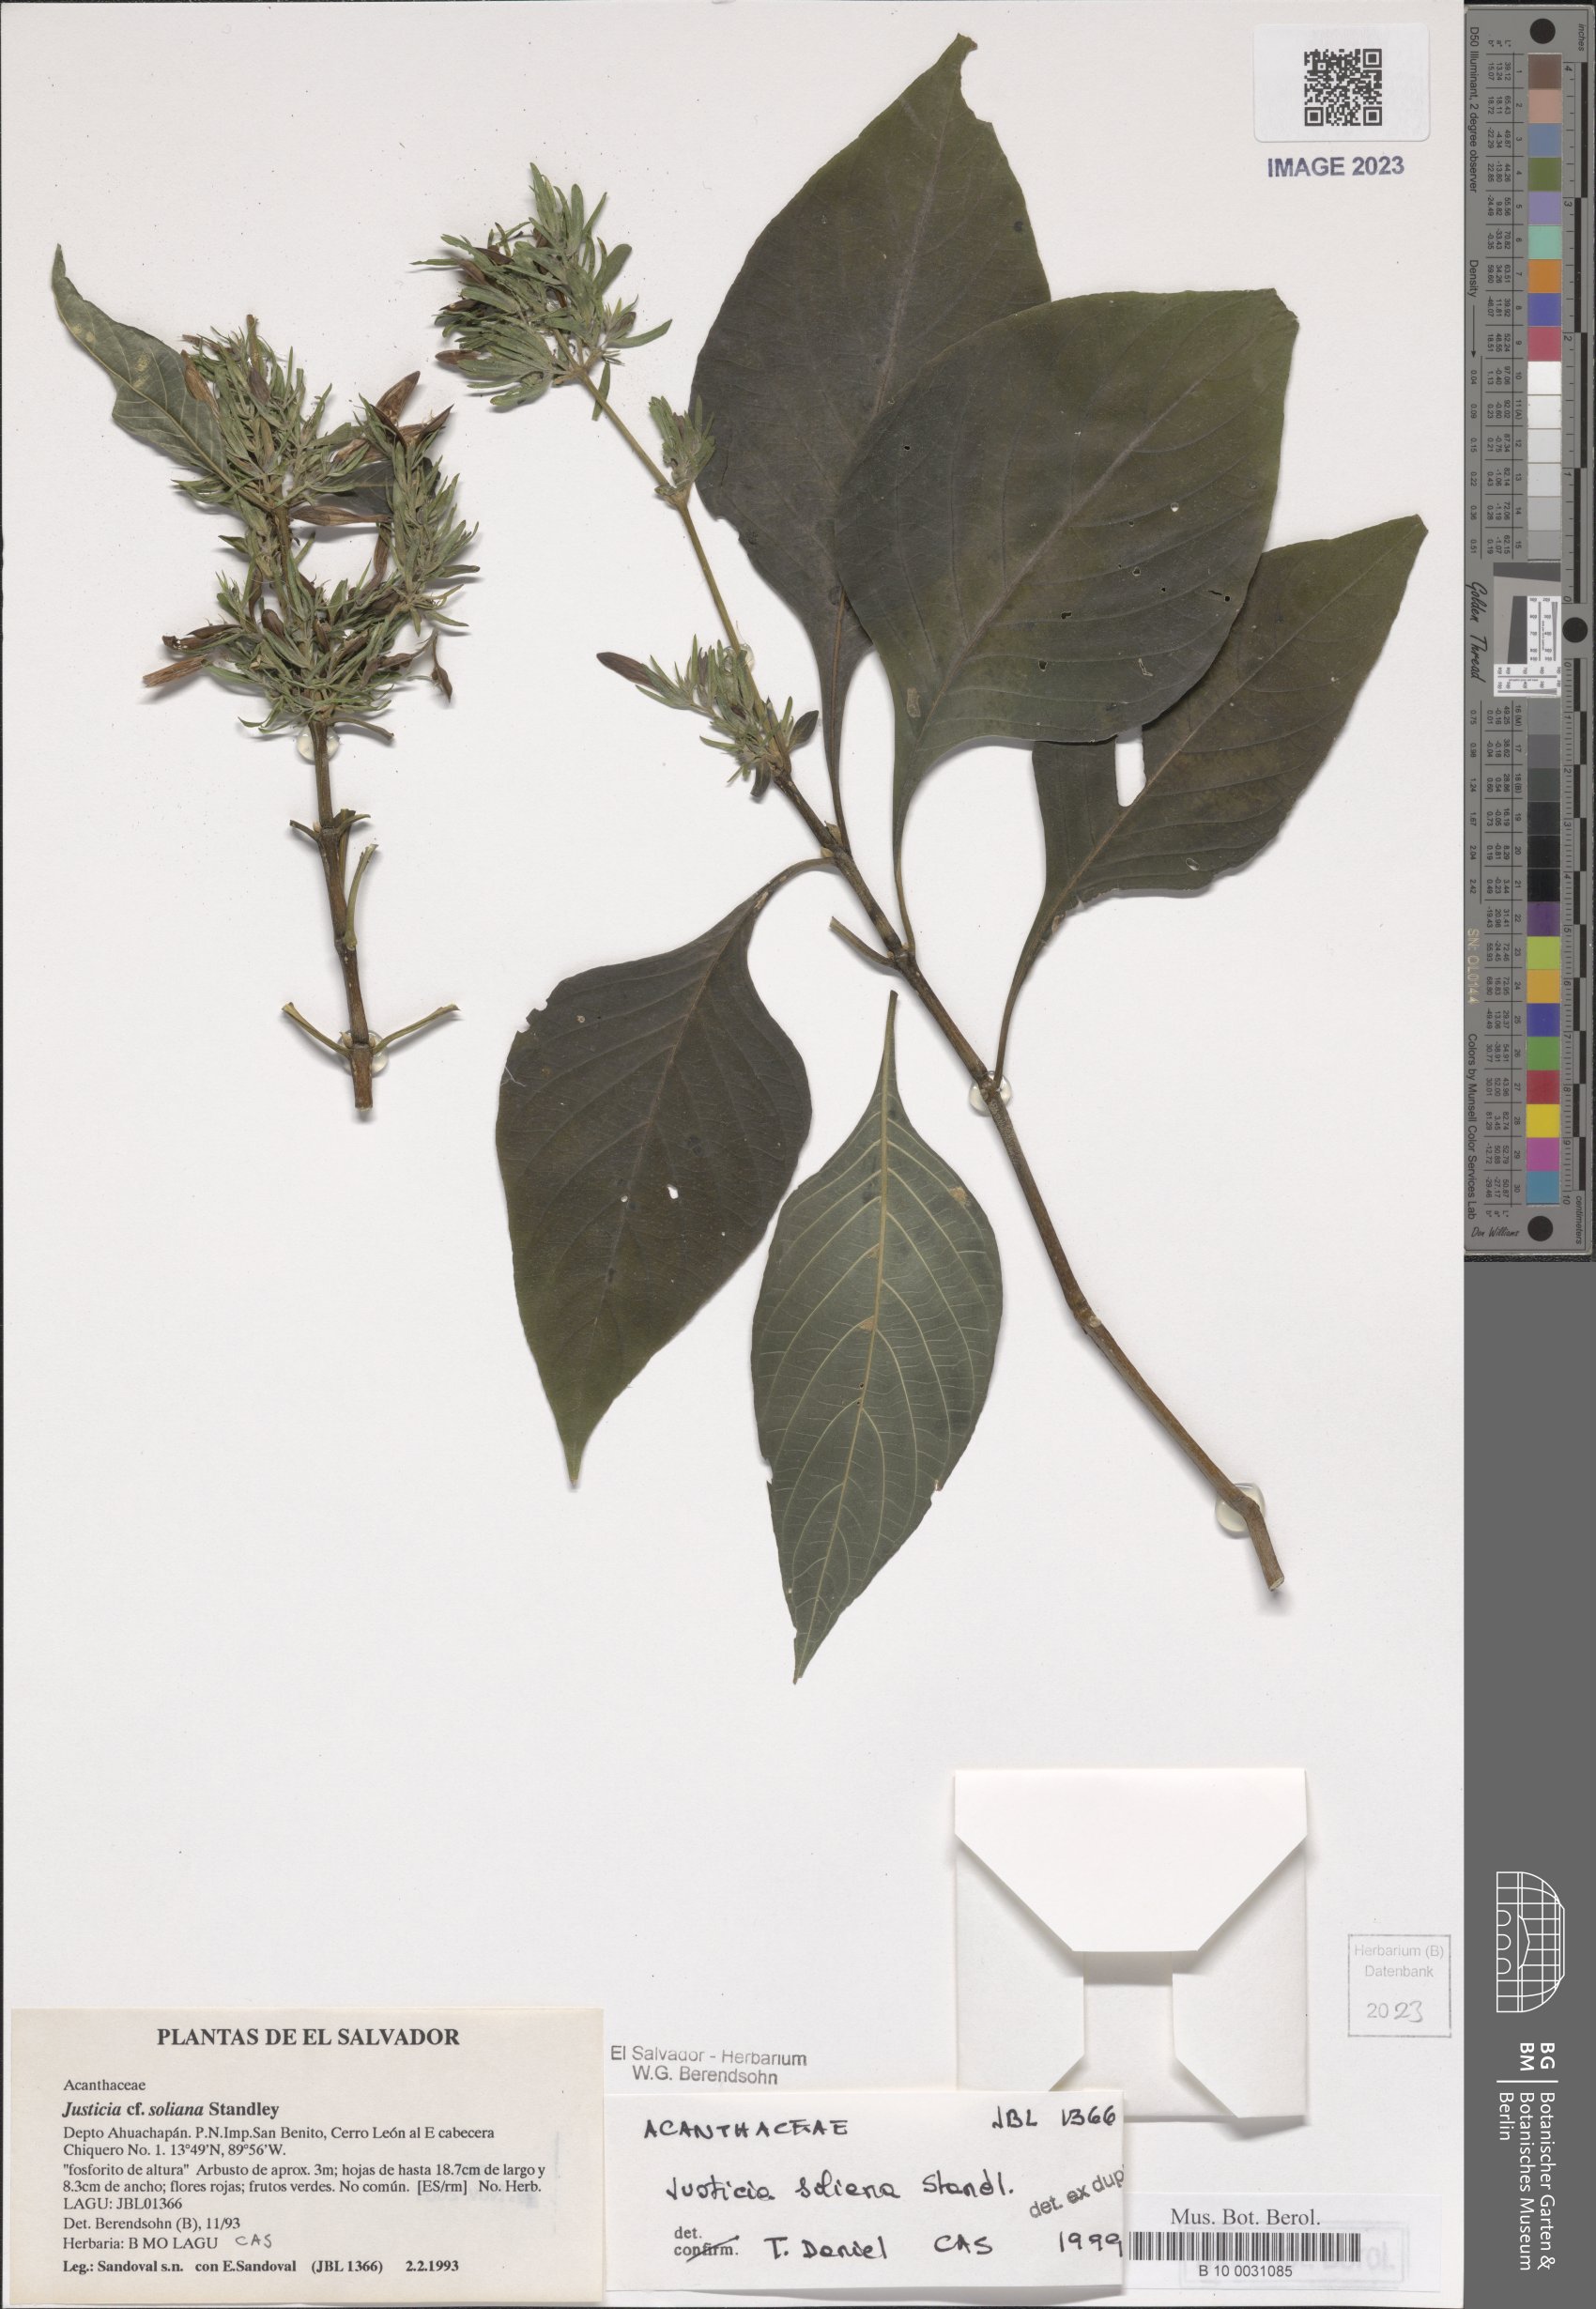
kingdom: Plantae
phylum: Tracheophyta
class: Magnoliopsida
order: Lamiales
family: Acanthaceae
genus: Justicia
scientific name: Justicia soliana
